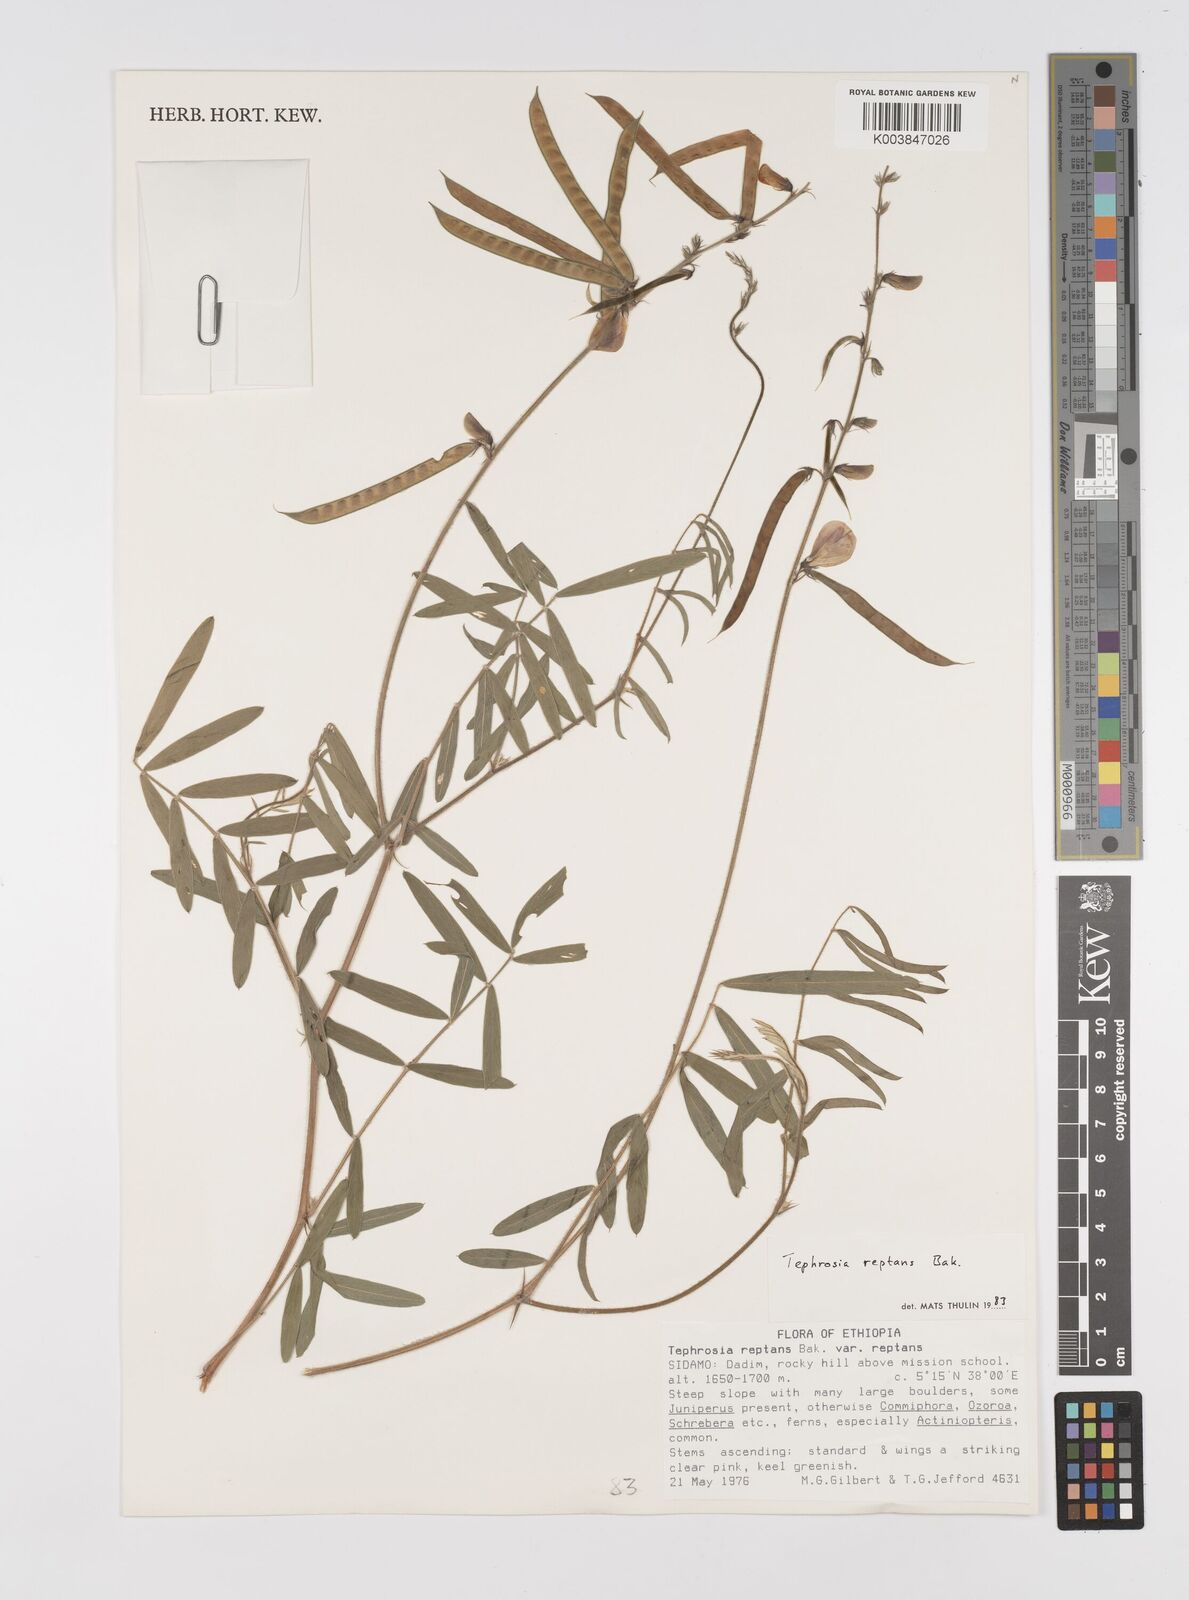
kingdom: Plantae
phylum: Tracheophyta
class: Magnoliopsida
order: Fabales
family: Fabaceae
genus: Tephrosia
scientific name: Tephrosia reptans
